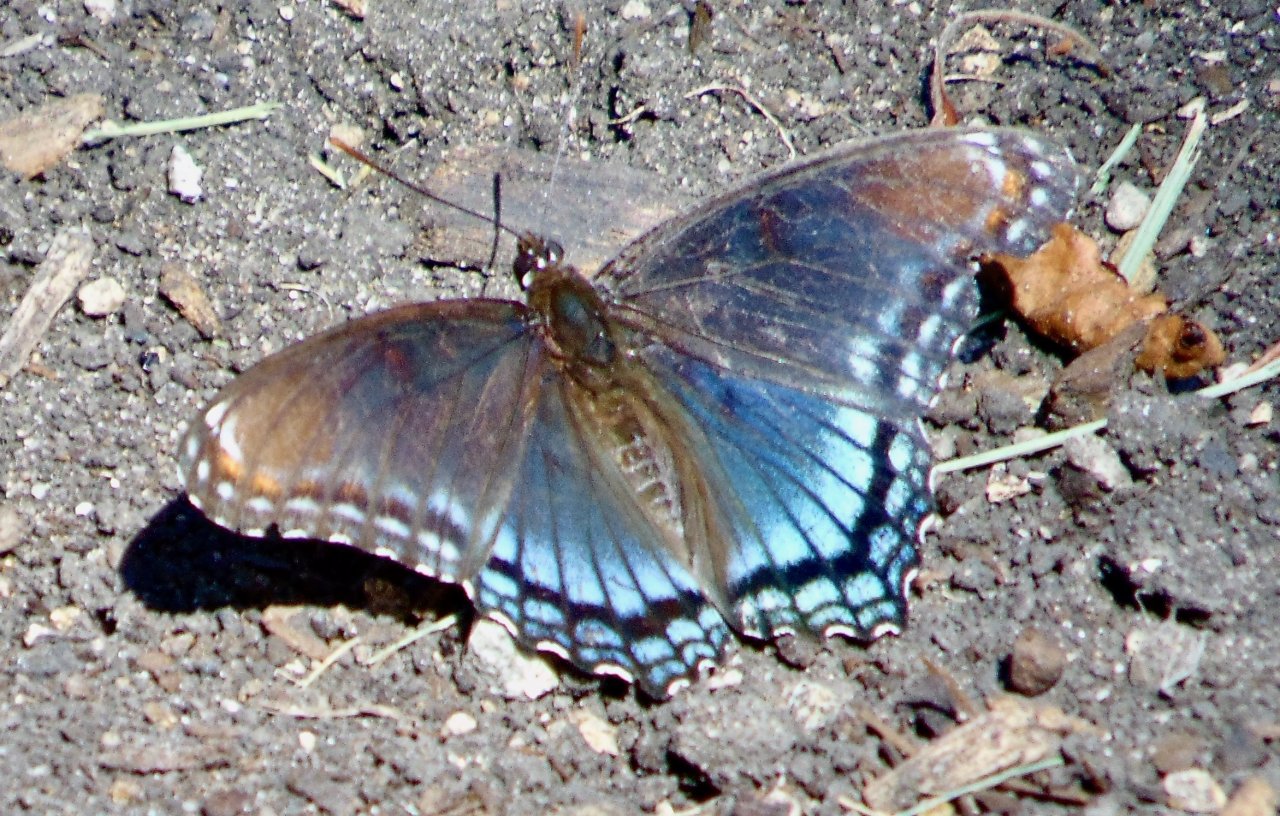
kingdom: Animalia
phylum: Arthropoda
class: Insecta
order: Lepidoptera
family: Nymphalidae
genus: Limenitis
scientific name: Limenitis astyanax
